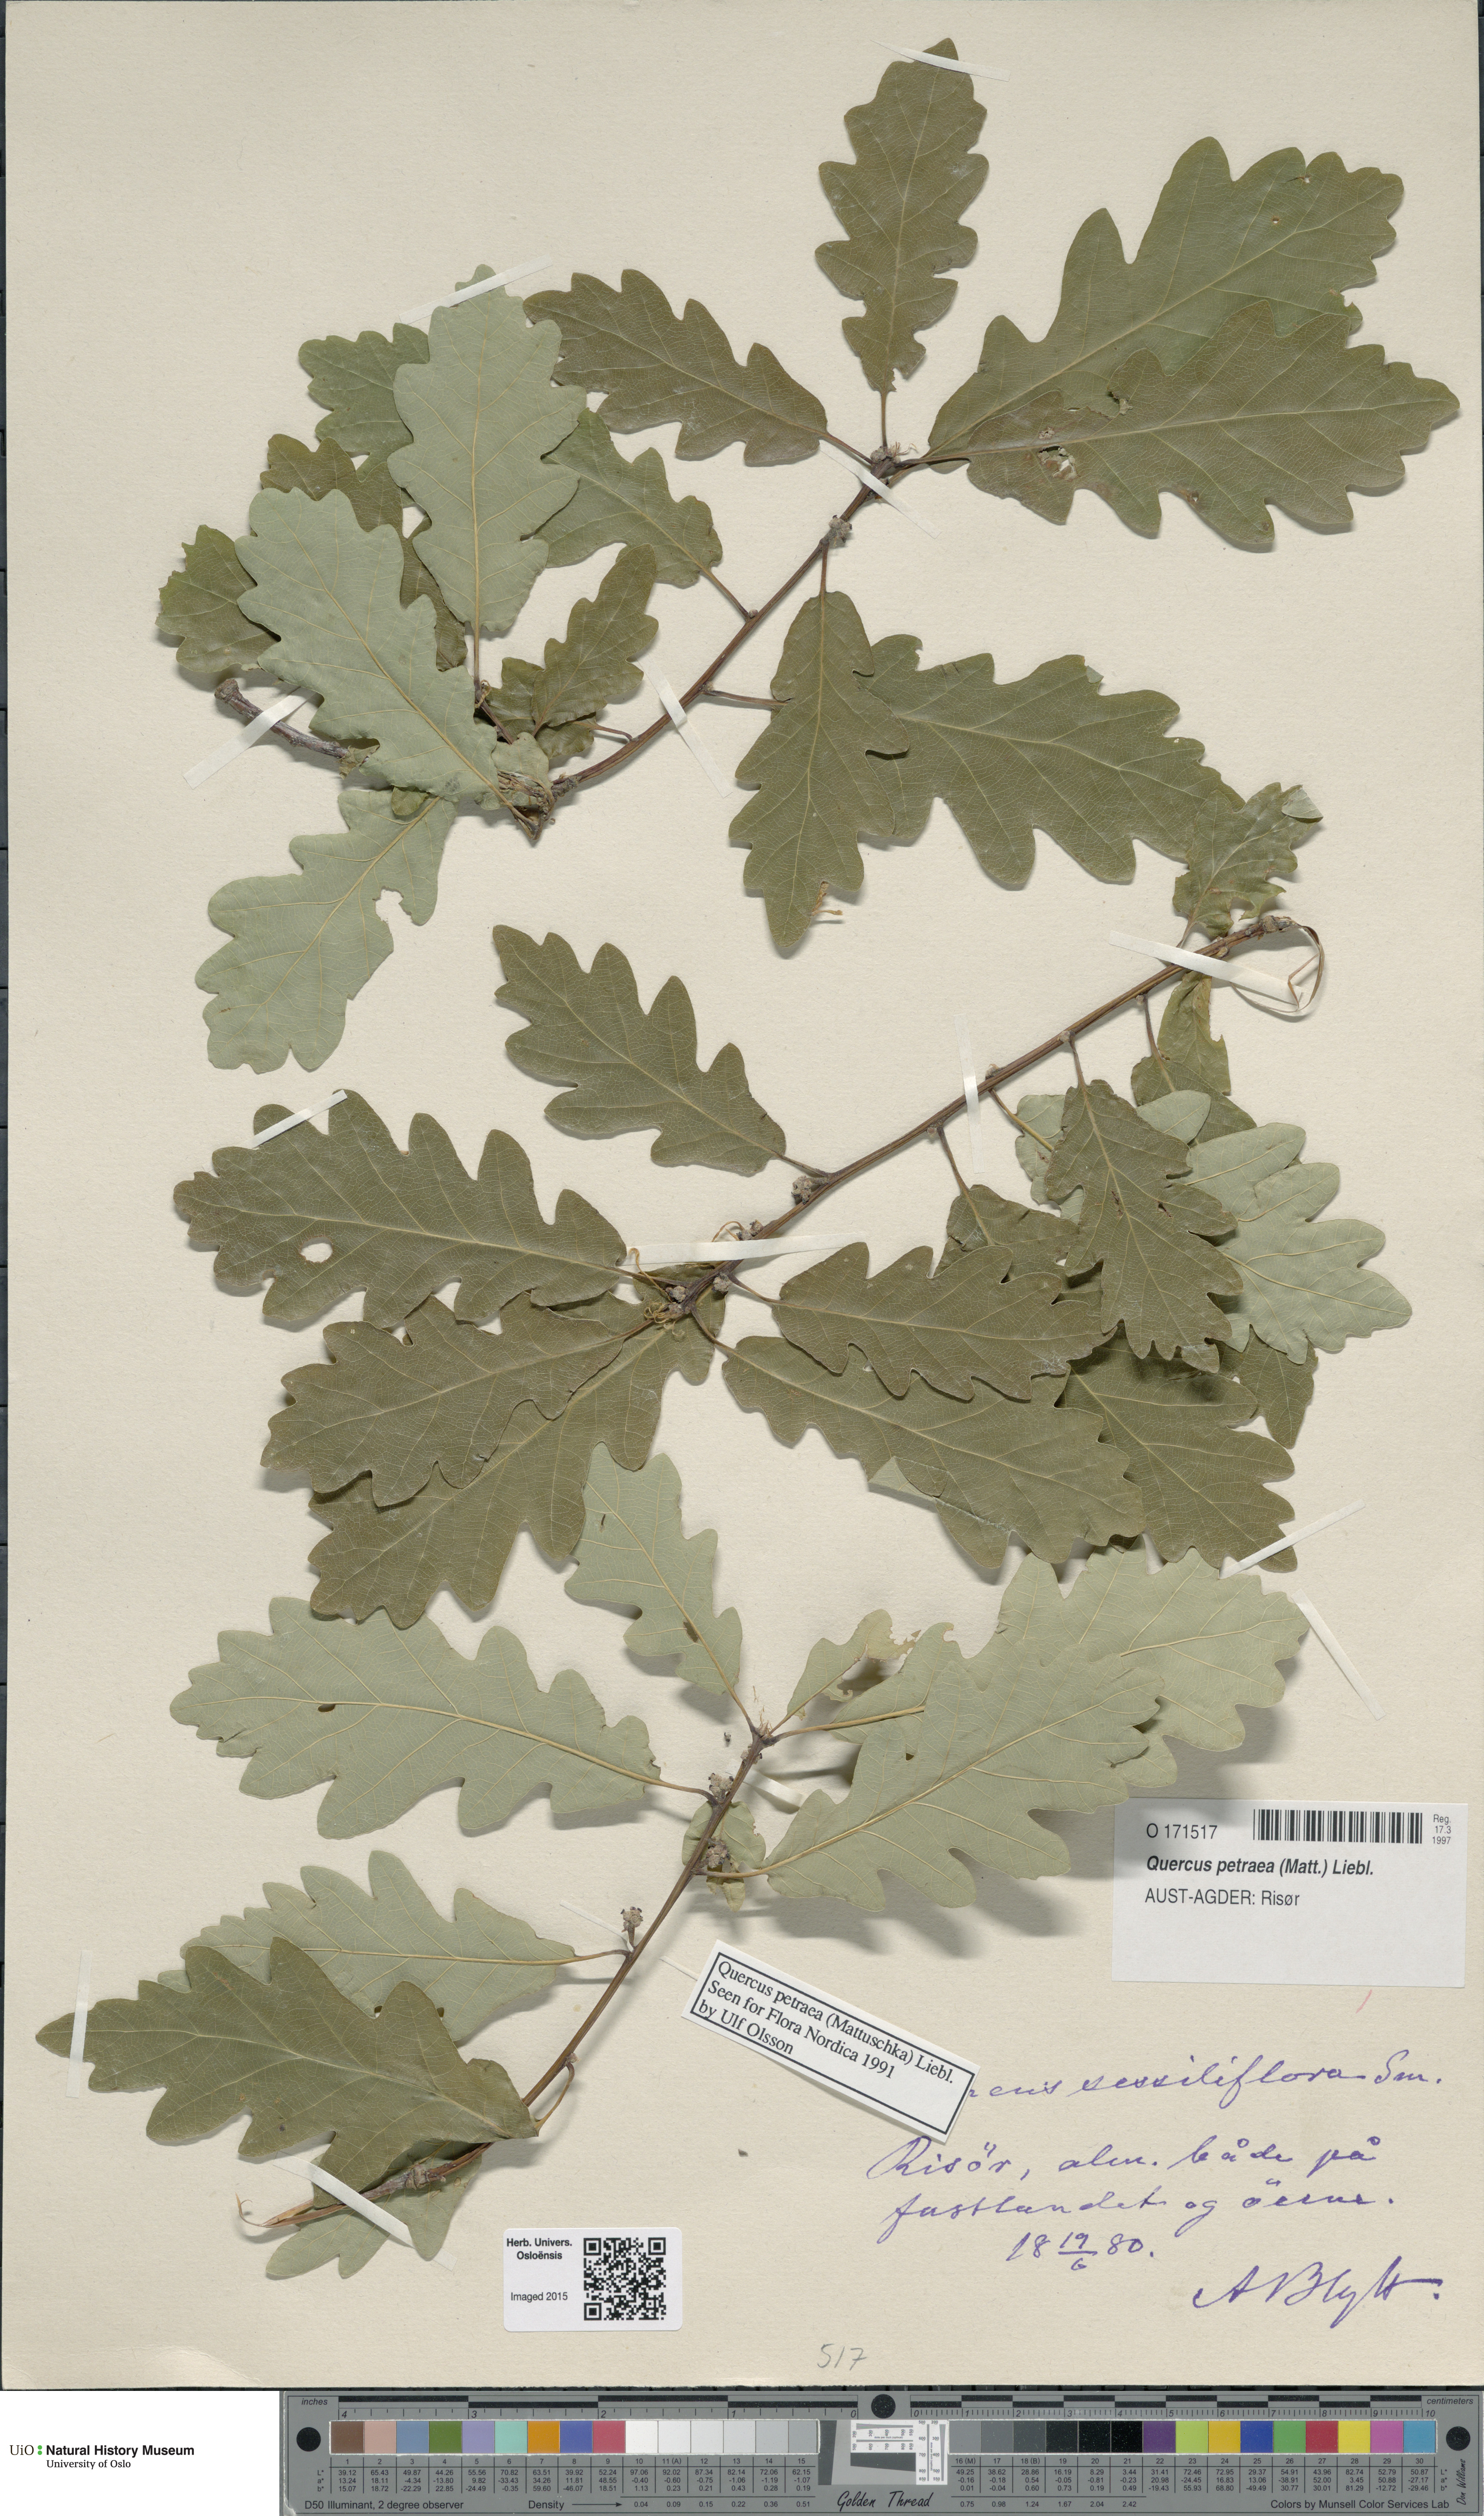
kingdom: Plantae
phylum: Tracheophyta
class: Magnoliopsida
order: Fagales
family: Fagaceae
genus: Quercus
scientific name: Quercus petraea
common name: Sessile oak
